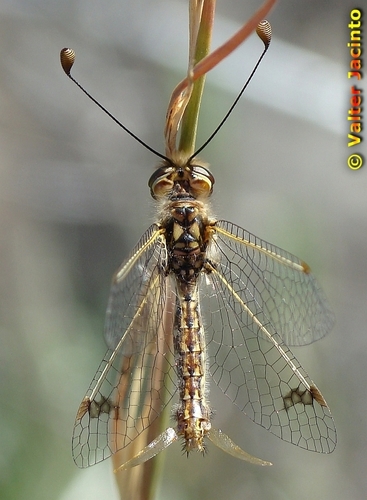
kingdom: Animalia
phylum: Arthropoda
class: Insecta
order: Neuroptera
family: Ascalaphidae
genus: Deleproctophylla
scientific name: Deleproctophylla dusmeti
